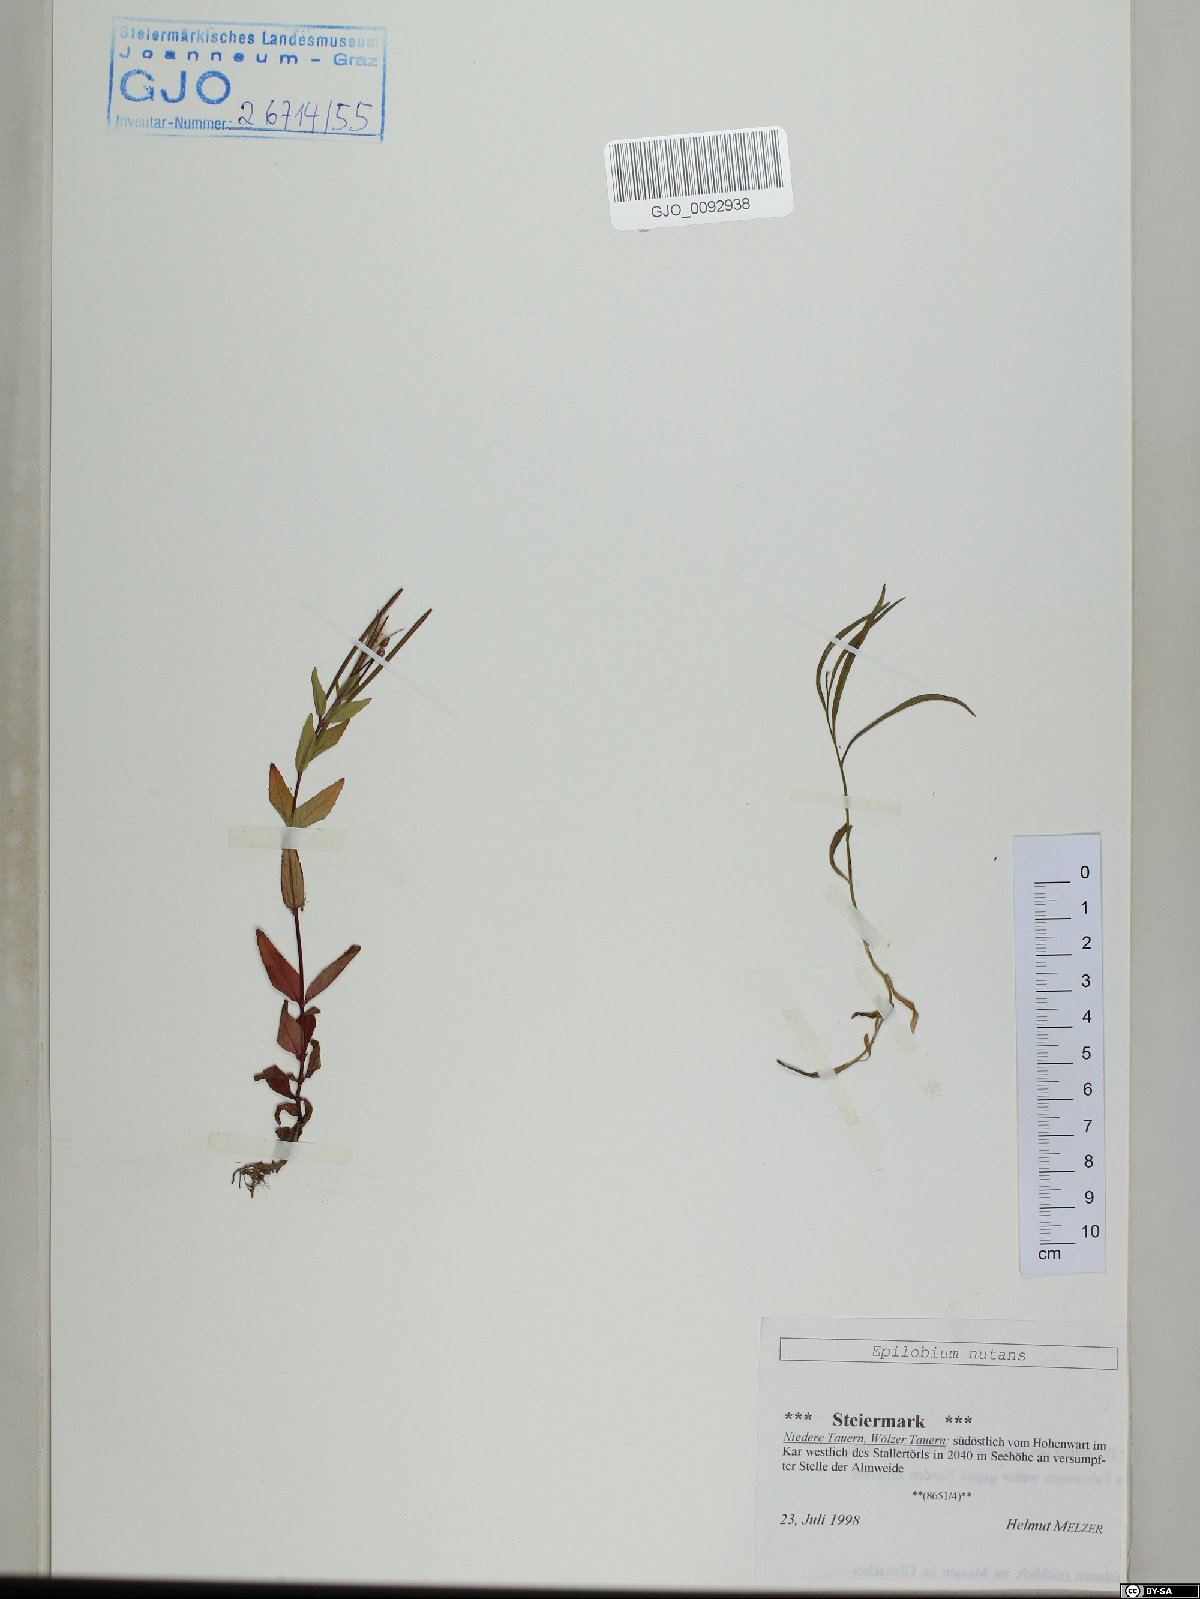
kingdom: Plantae
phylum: Tracheophyta
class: Magnoliopsida
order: Myrtales
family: Onagraceae
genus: Epilobium
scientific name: Epilobium nutans
